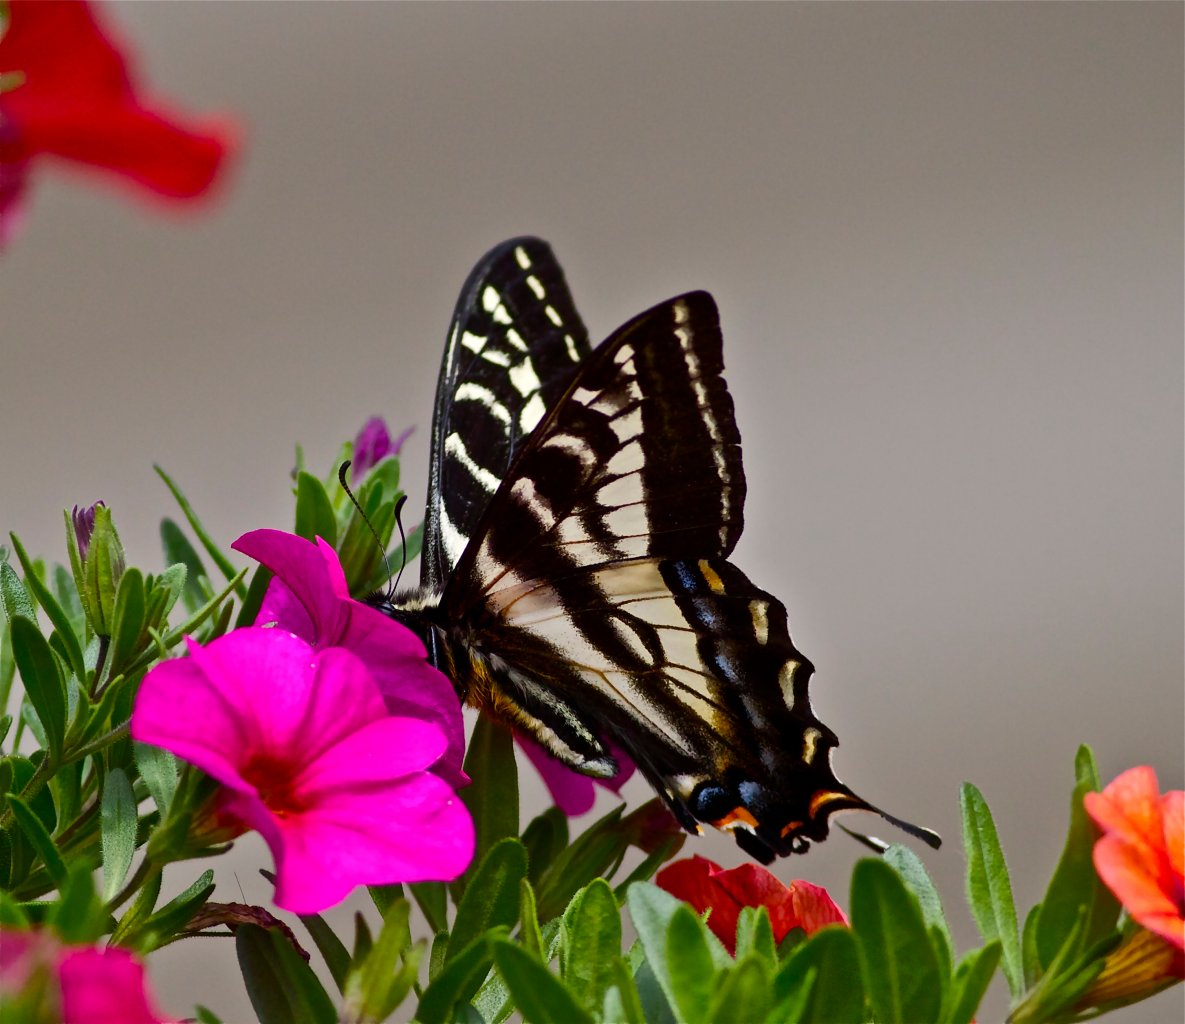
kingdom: Animalia
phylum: Arthropoda
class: Insecta
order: Lepidoptera
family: Papilionidae
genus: Pterourus
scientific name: Pterourus eurymedon
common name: Pale Swallowtail
